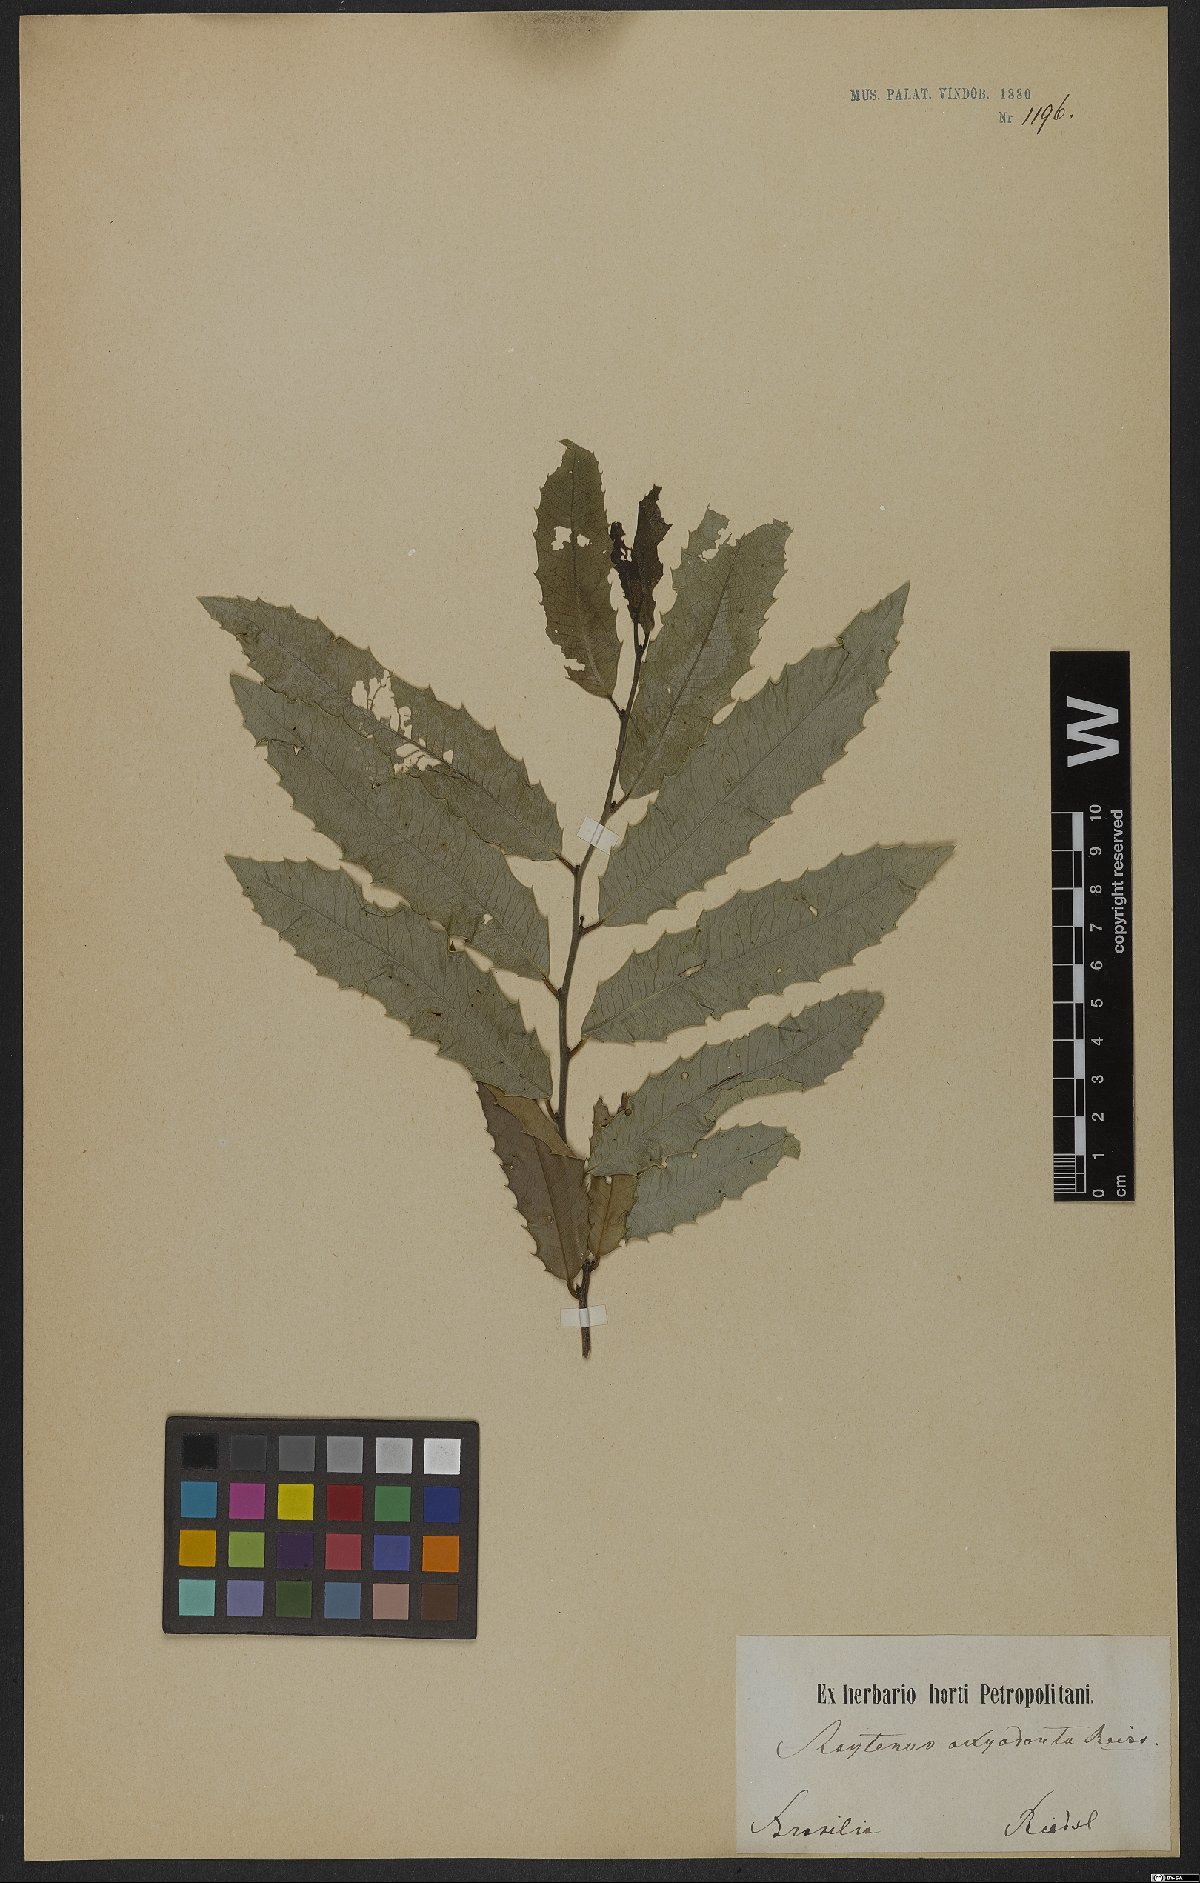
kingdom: Plantae
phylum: Tracheophyta
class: Magnoliopsida
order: Celastrales
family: Celastraceae
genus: Monteverdia
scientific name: Monteverdia aquifolium
